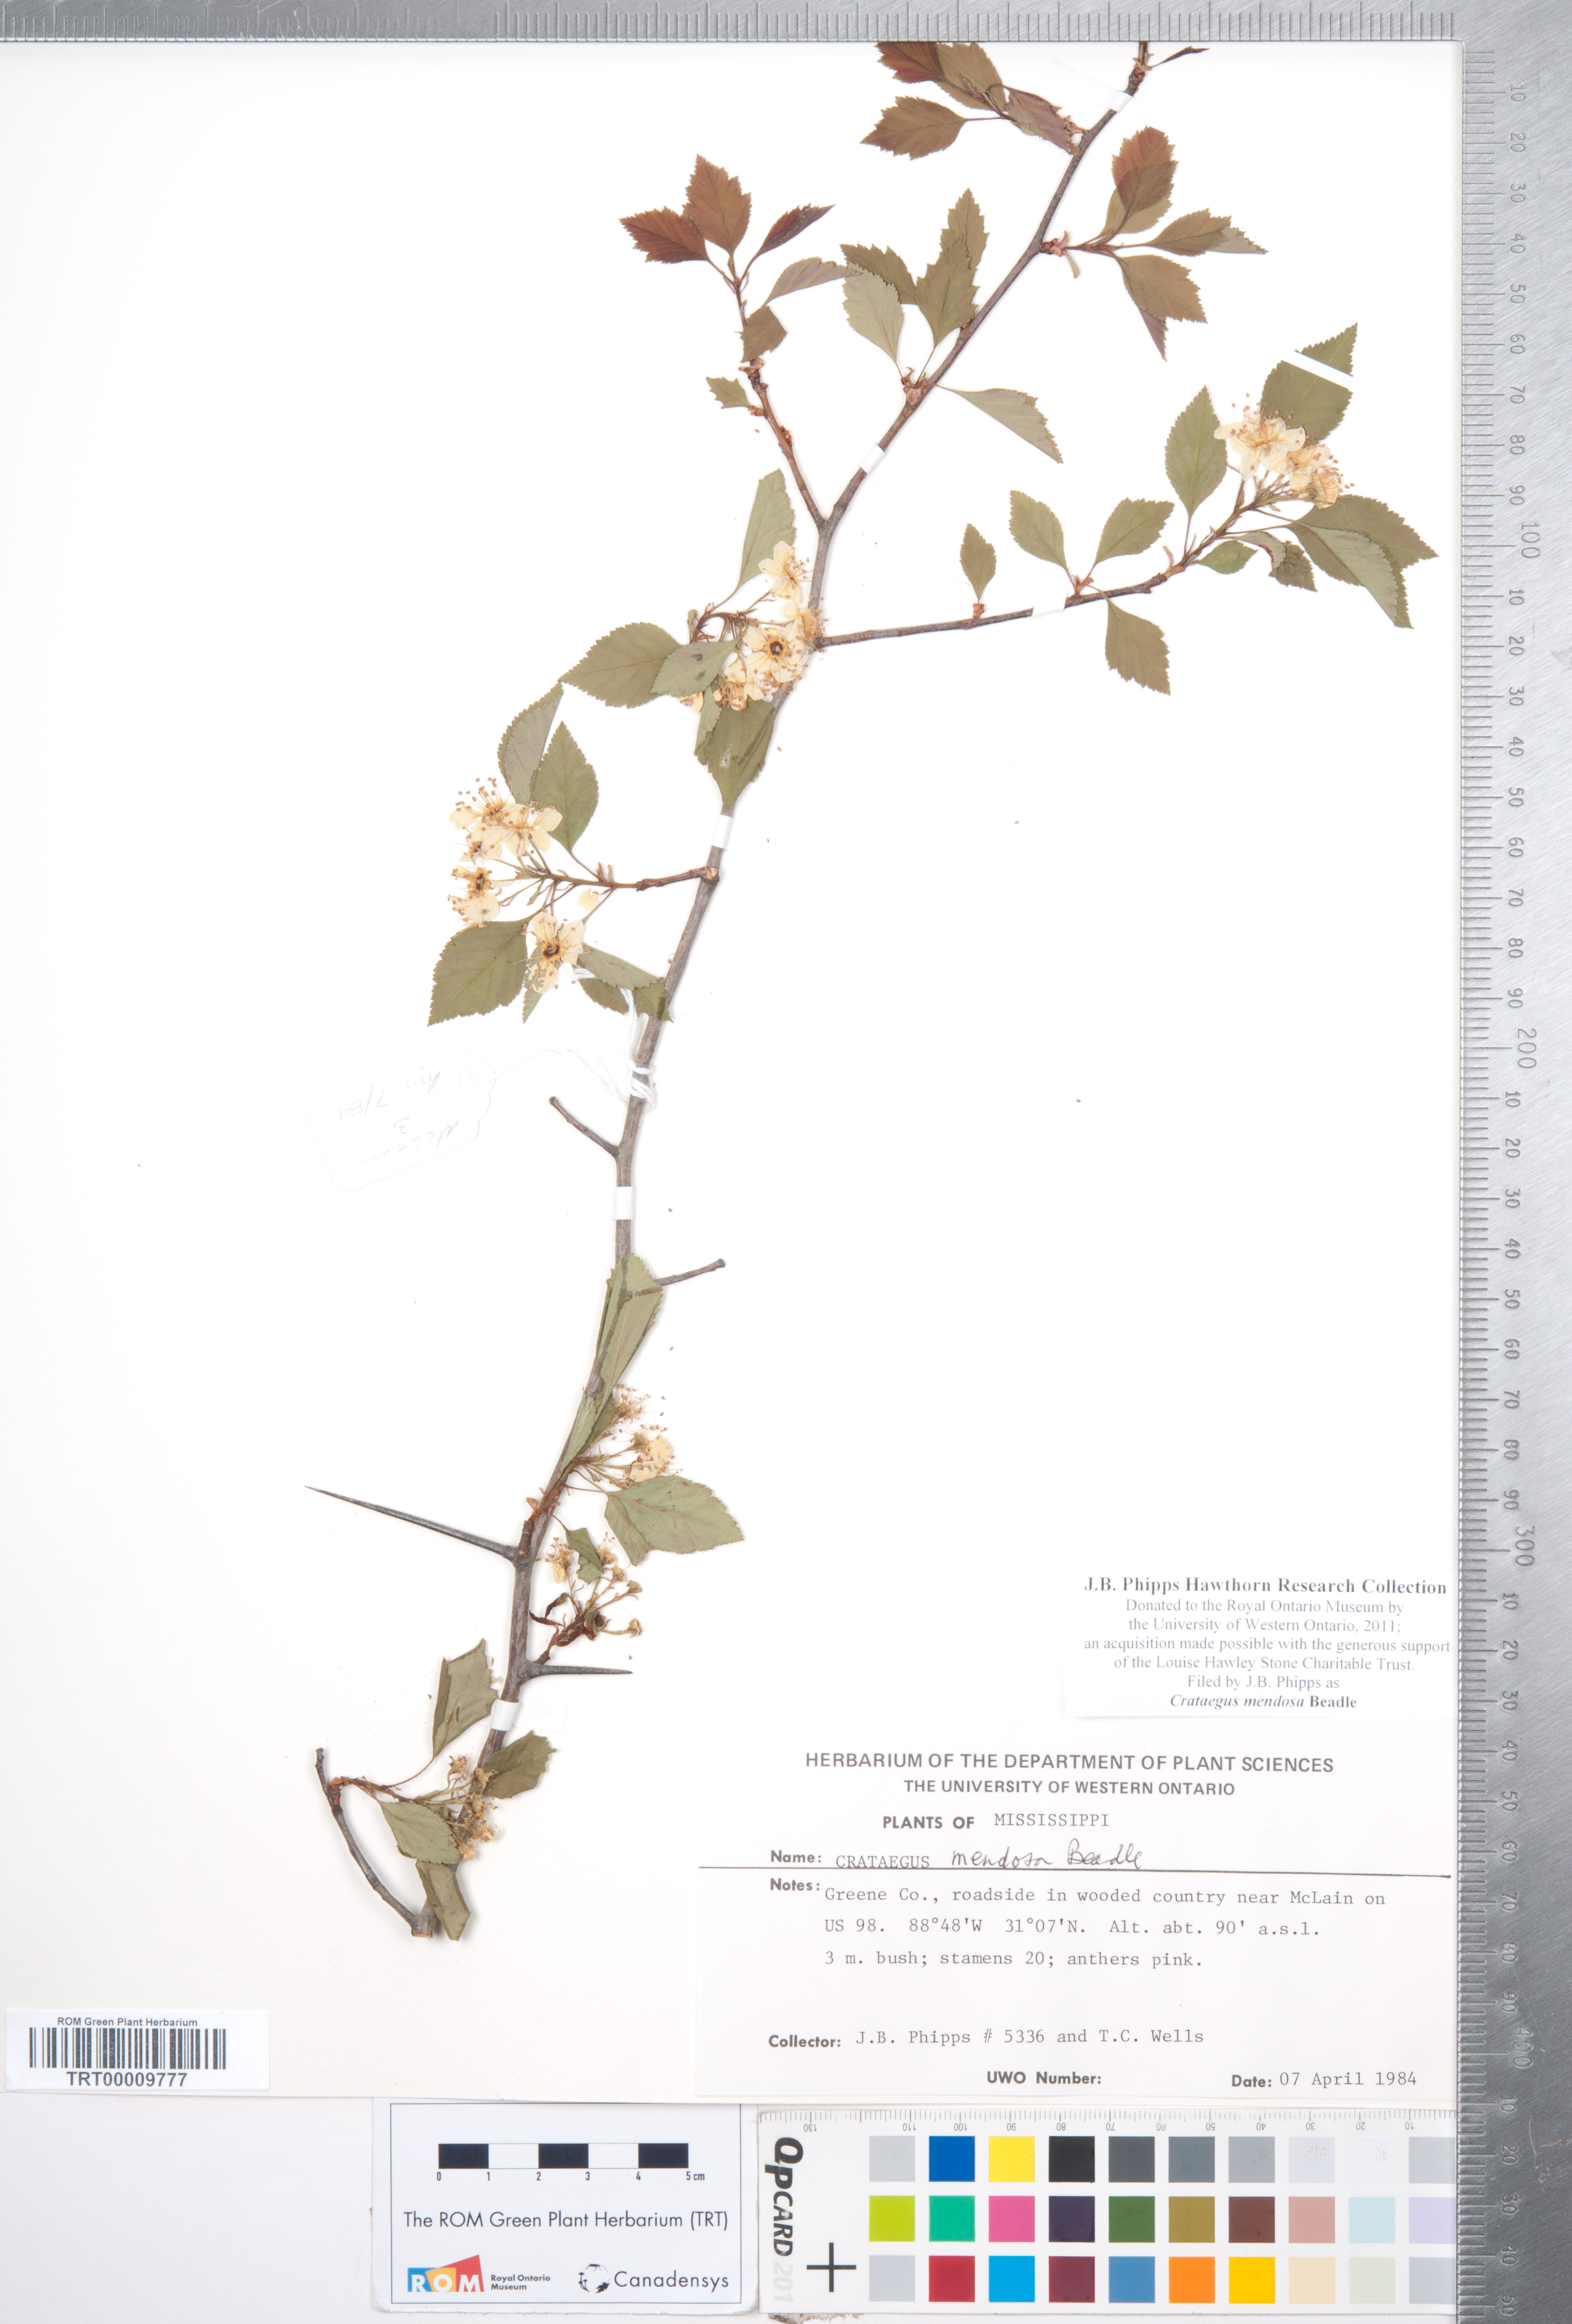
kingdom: Plantae
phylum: Tracheophyta
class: Magnoliopsida
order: Rosales
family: Rosaceae
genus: Crataegus
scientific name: Crataegus pulcherrima
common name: Beautiful hawthorn
